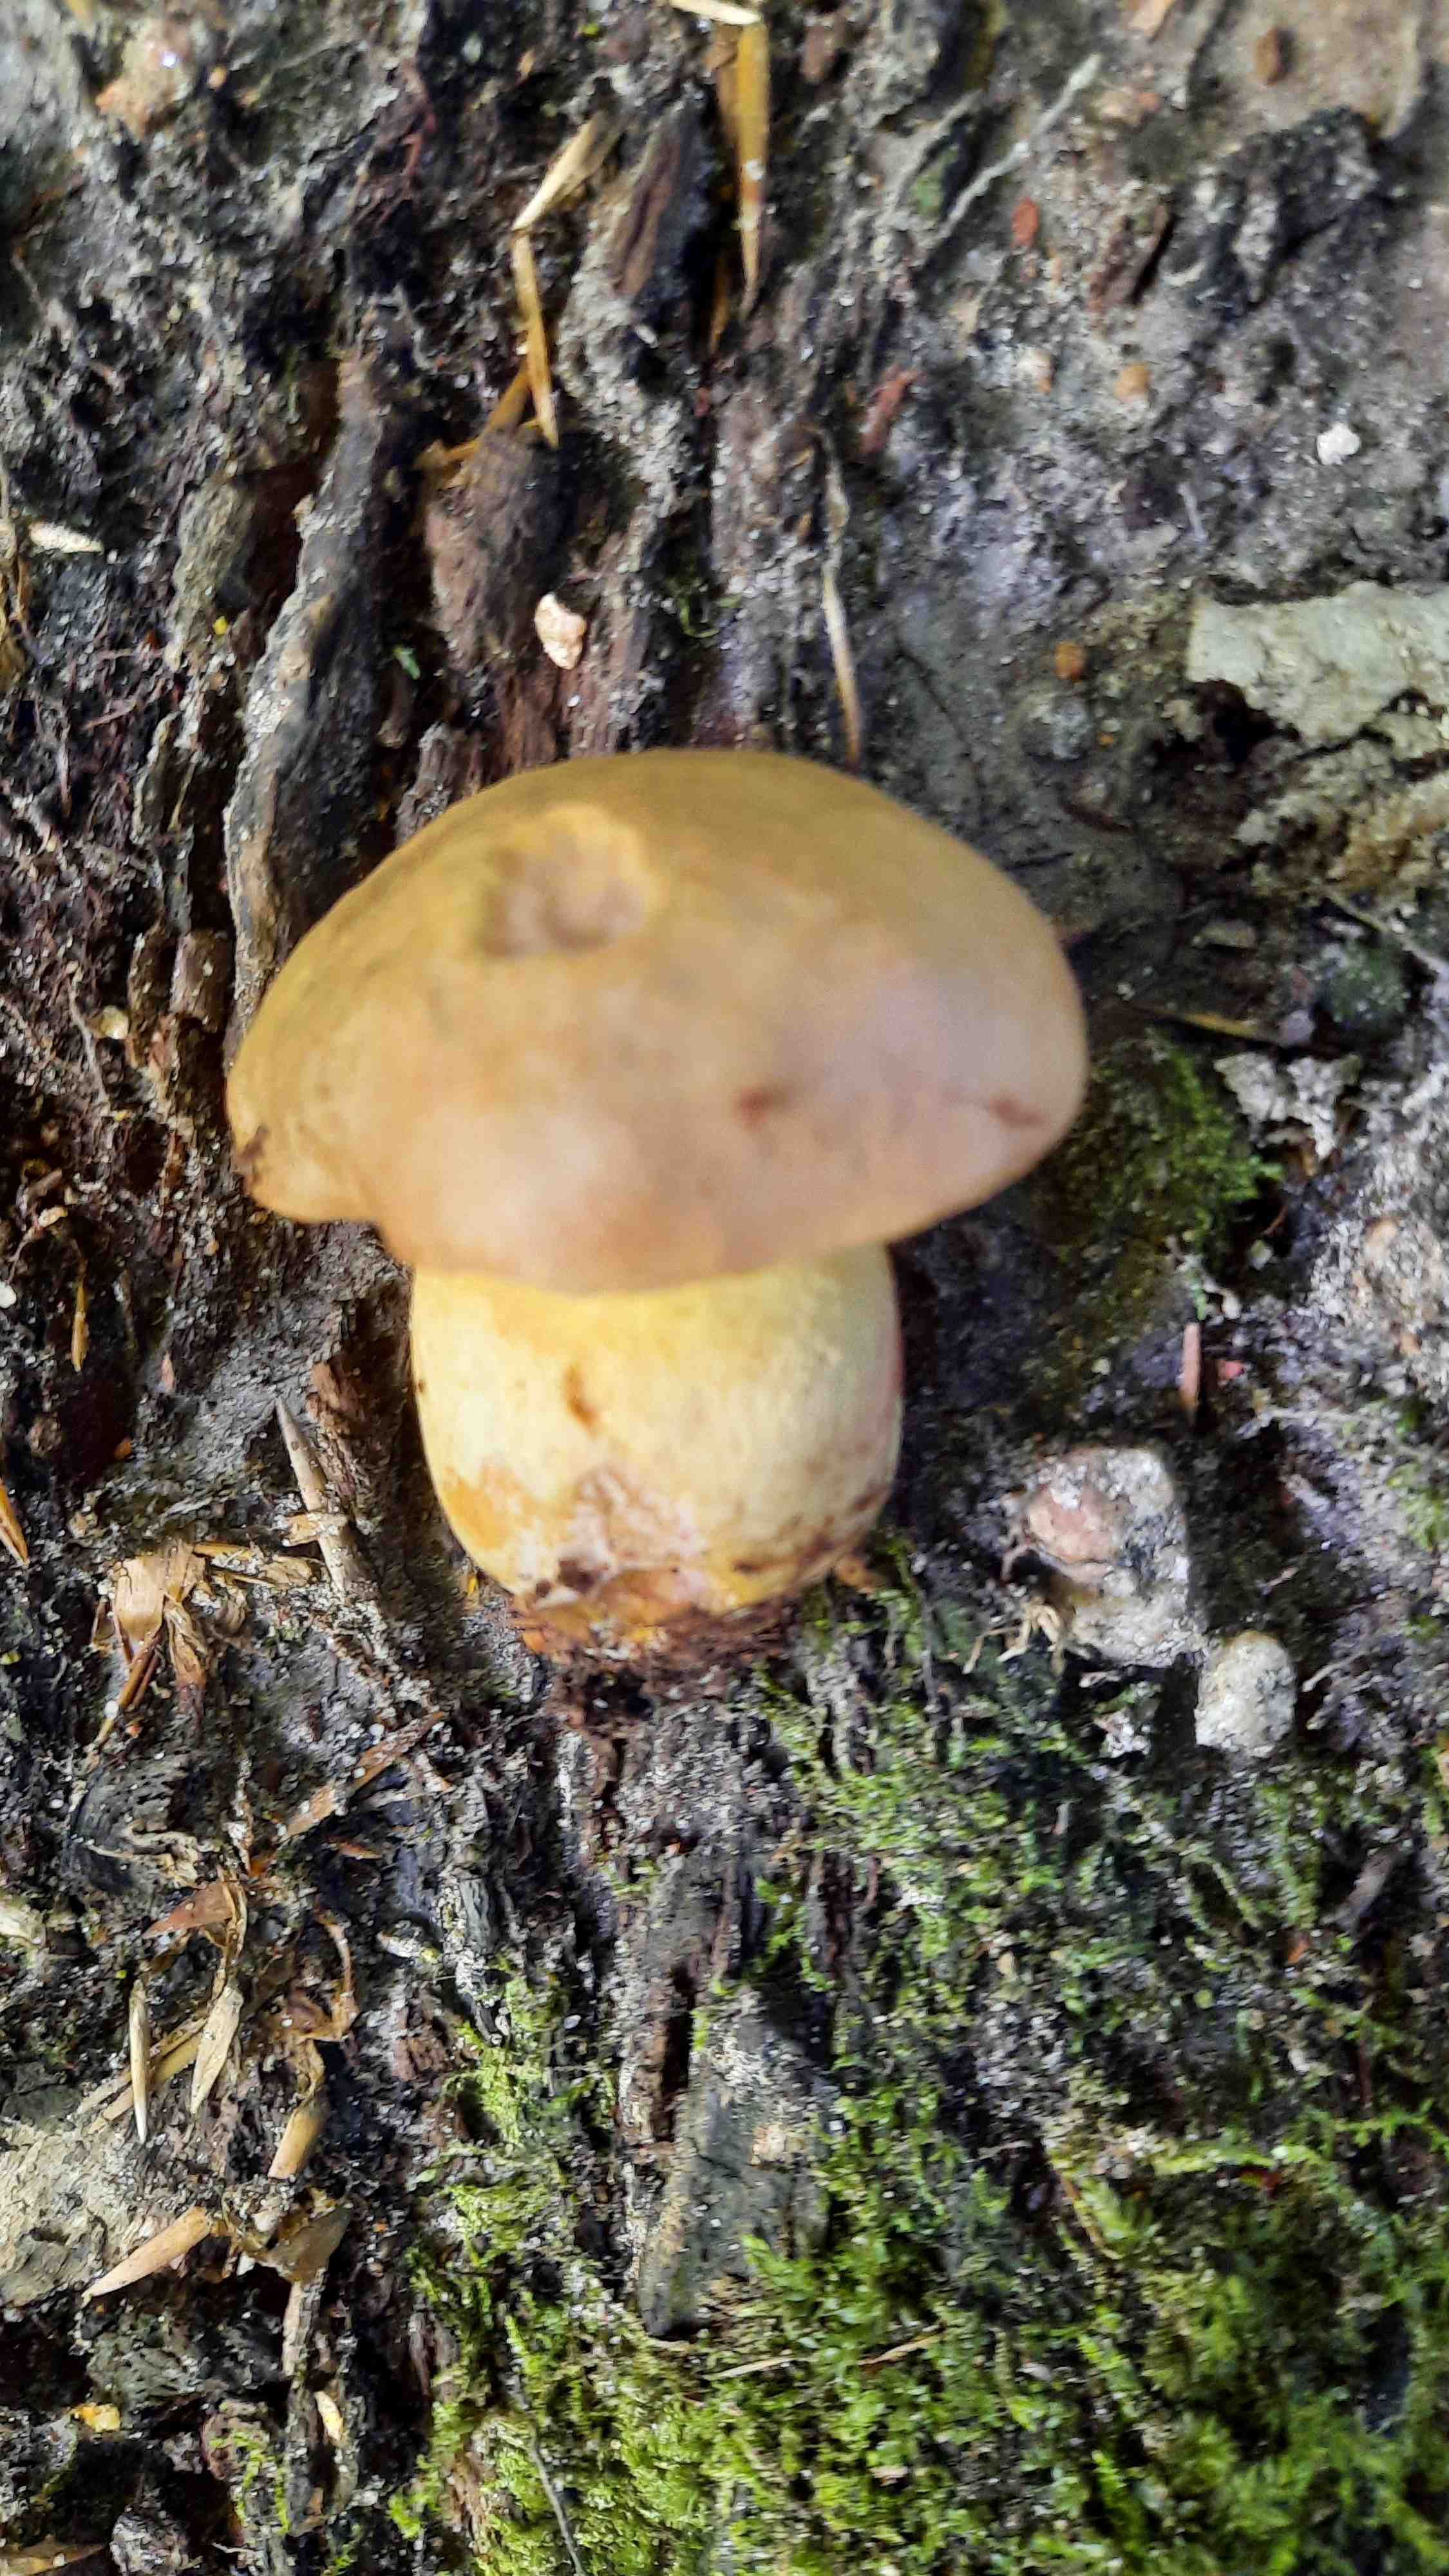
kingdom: Fungi
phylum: Basidiomycota
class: Agaricomycetes
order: Boletales
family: Boletaceae
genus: Butyriboletus
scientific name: Butyriboletus appendiculatus
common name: tenstokket rørhat
